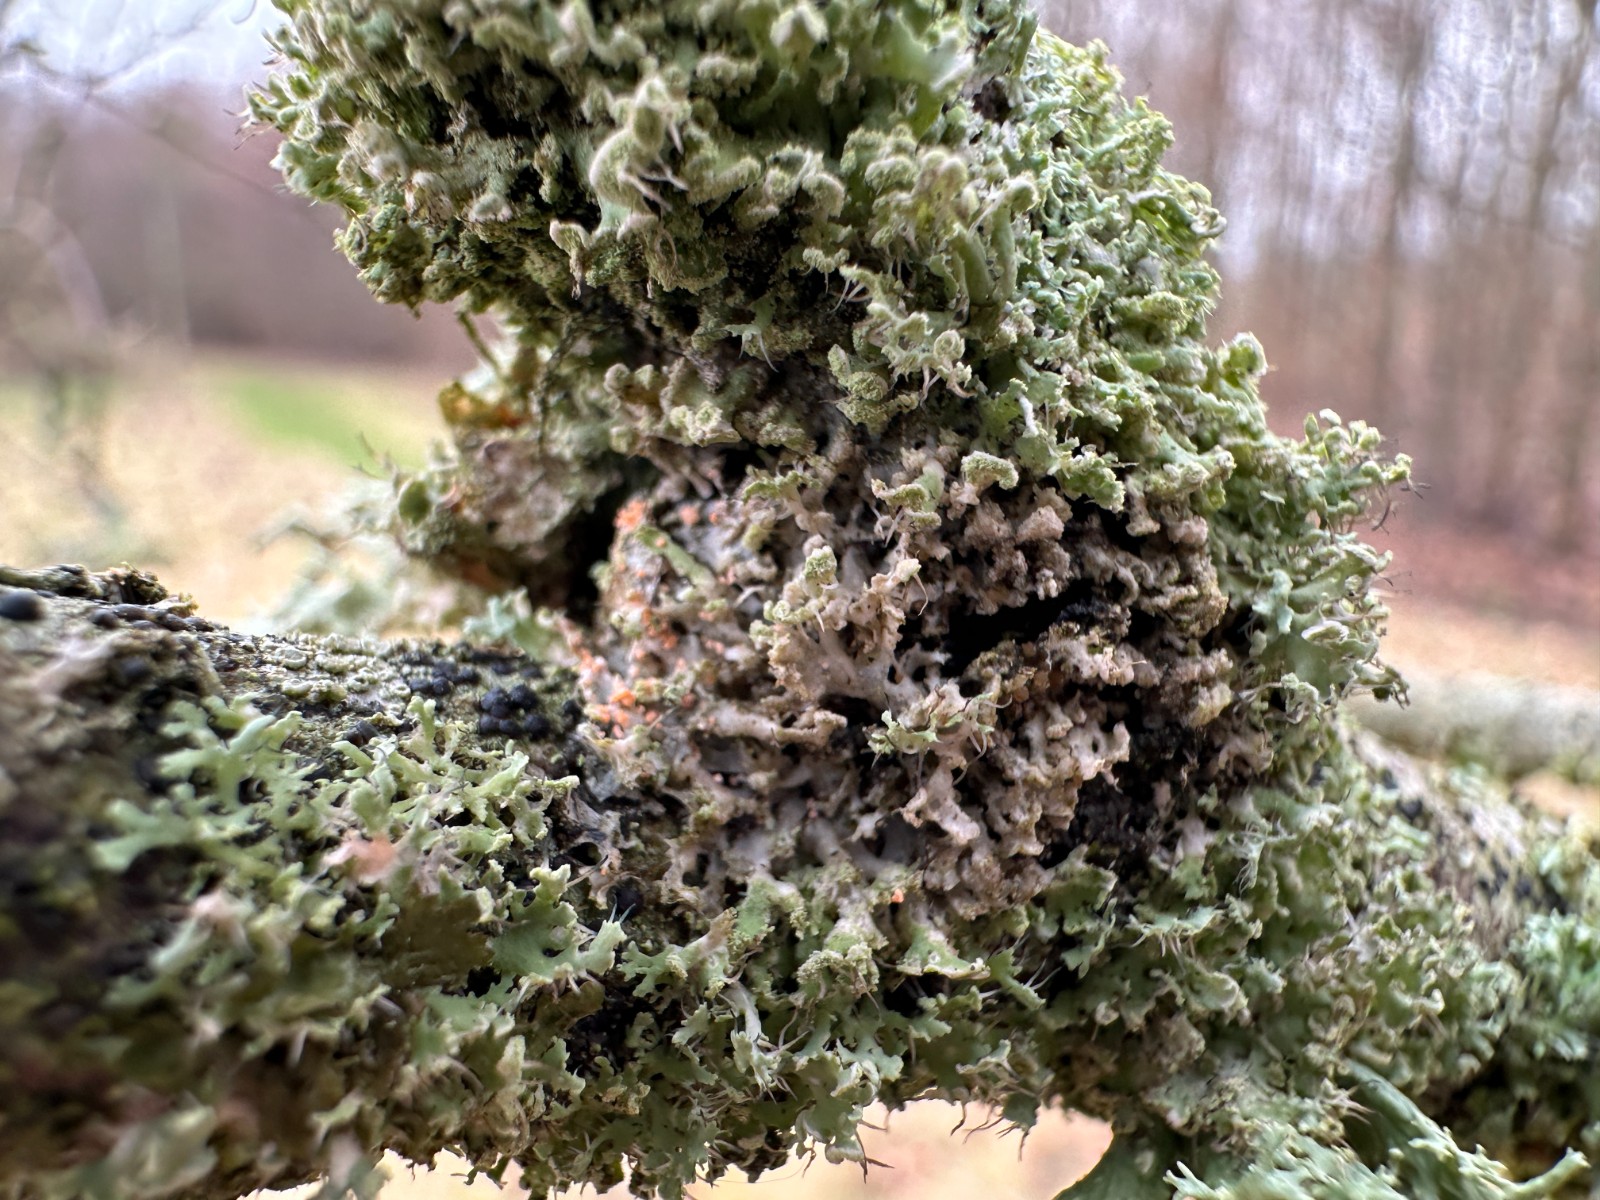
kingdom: Fungi
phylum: Basidiomycota
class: Agaricomycetes
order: Corticiales
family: Corticiaceae
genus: Erythricium
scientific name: Erythricium aurantiacum
